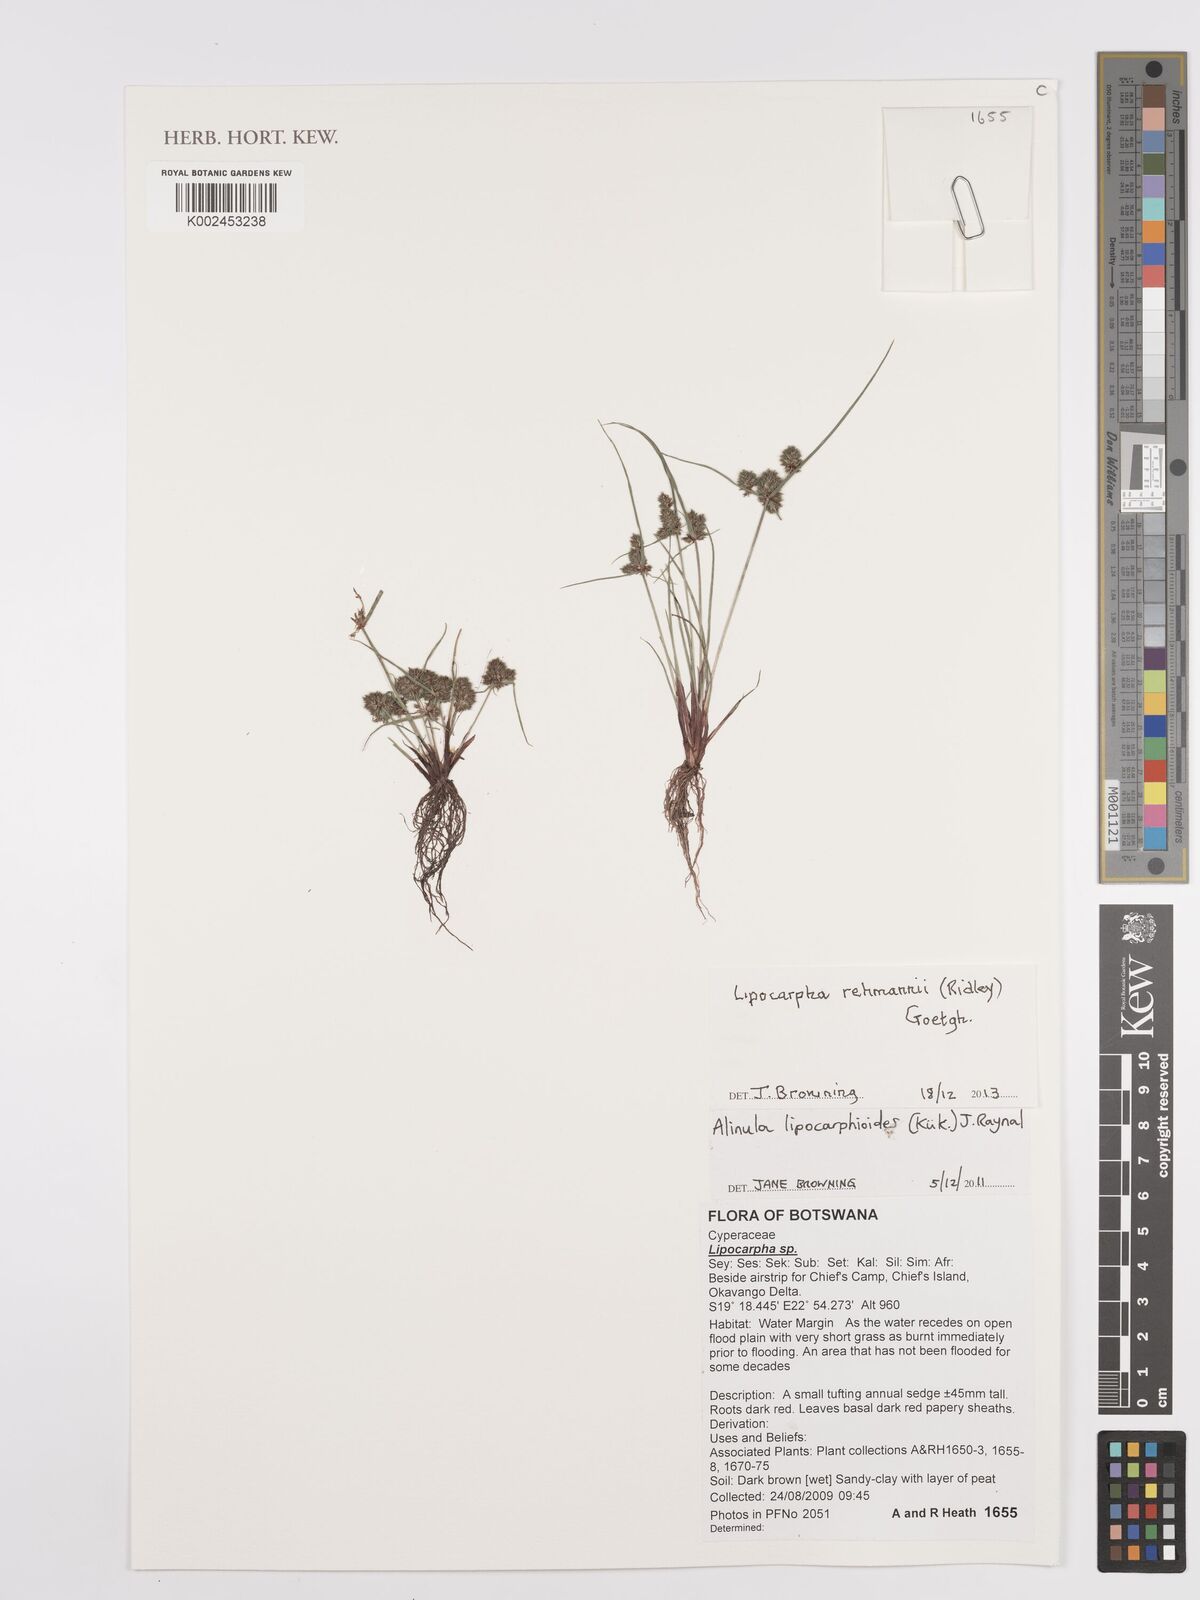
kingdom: Plantae
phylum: Tracheophyta
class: Liliopsida
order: Poales
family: Cyperaceae
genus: Cyperus
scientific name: Cyperus sanguinolentus
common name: Purpleglume flatsedge
